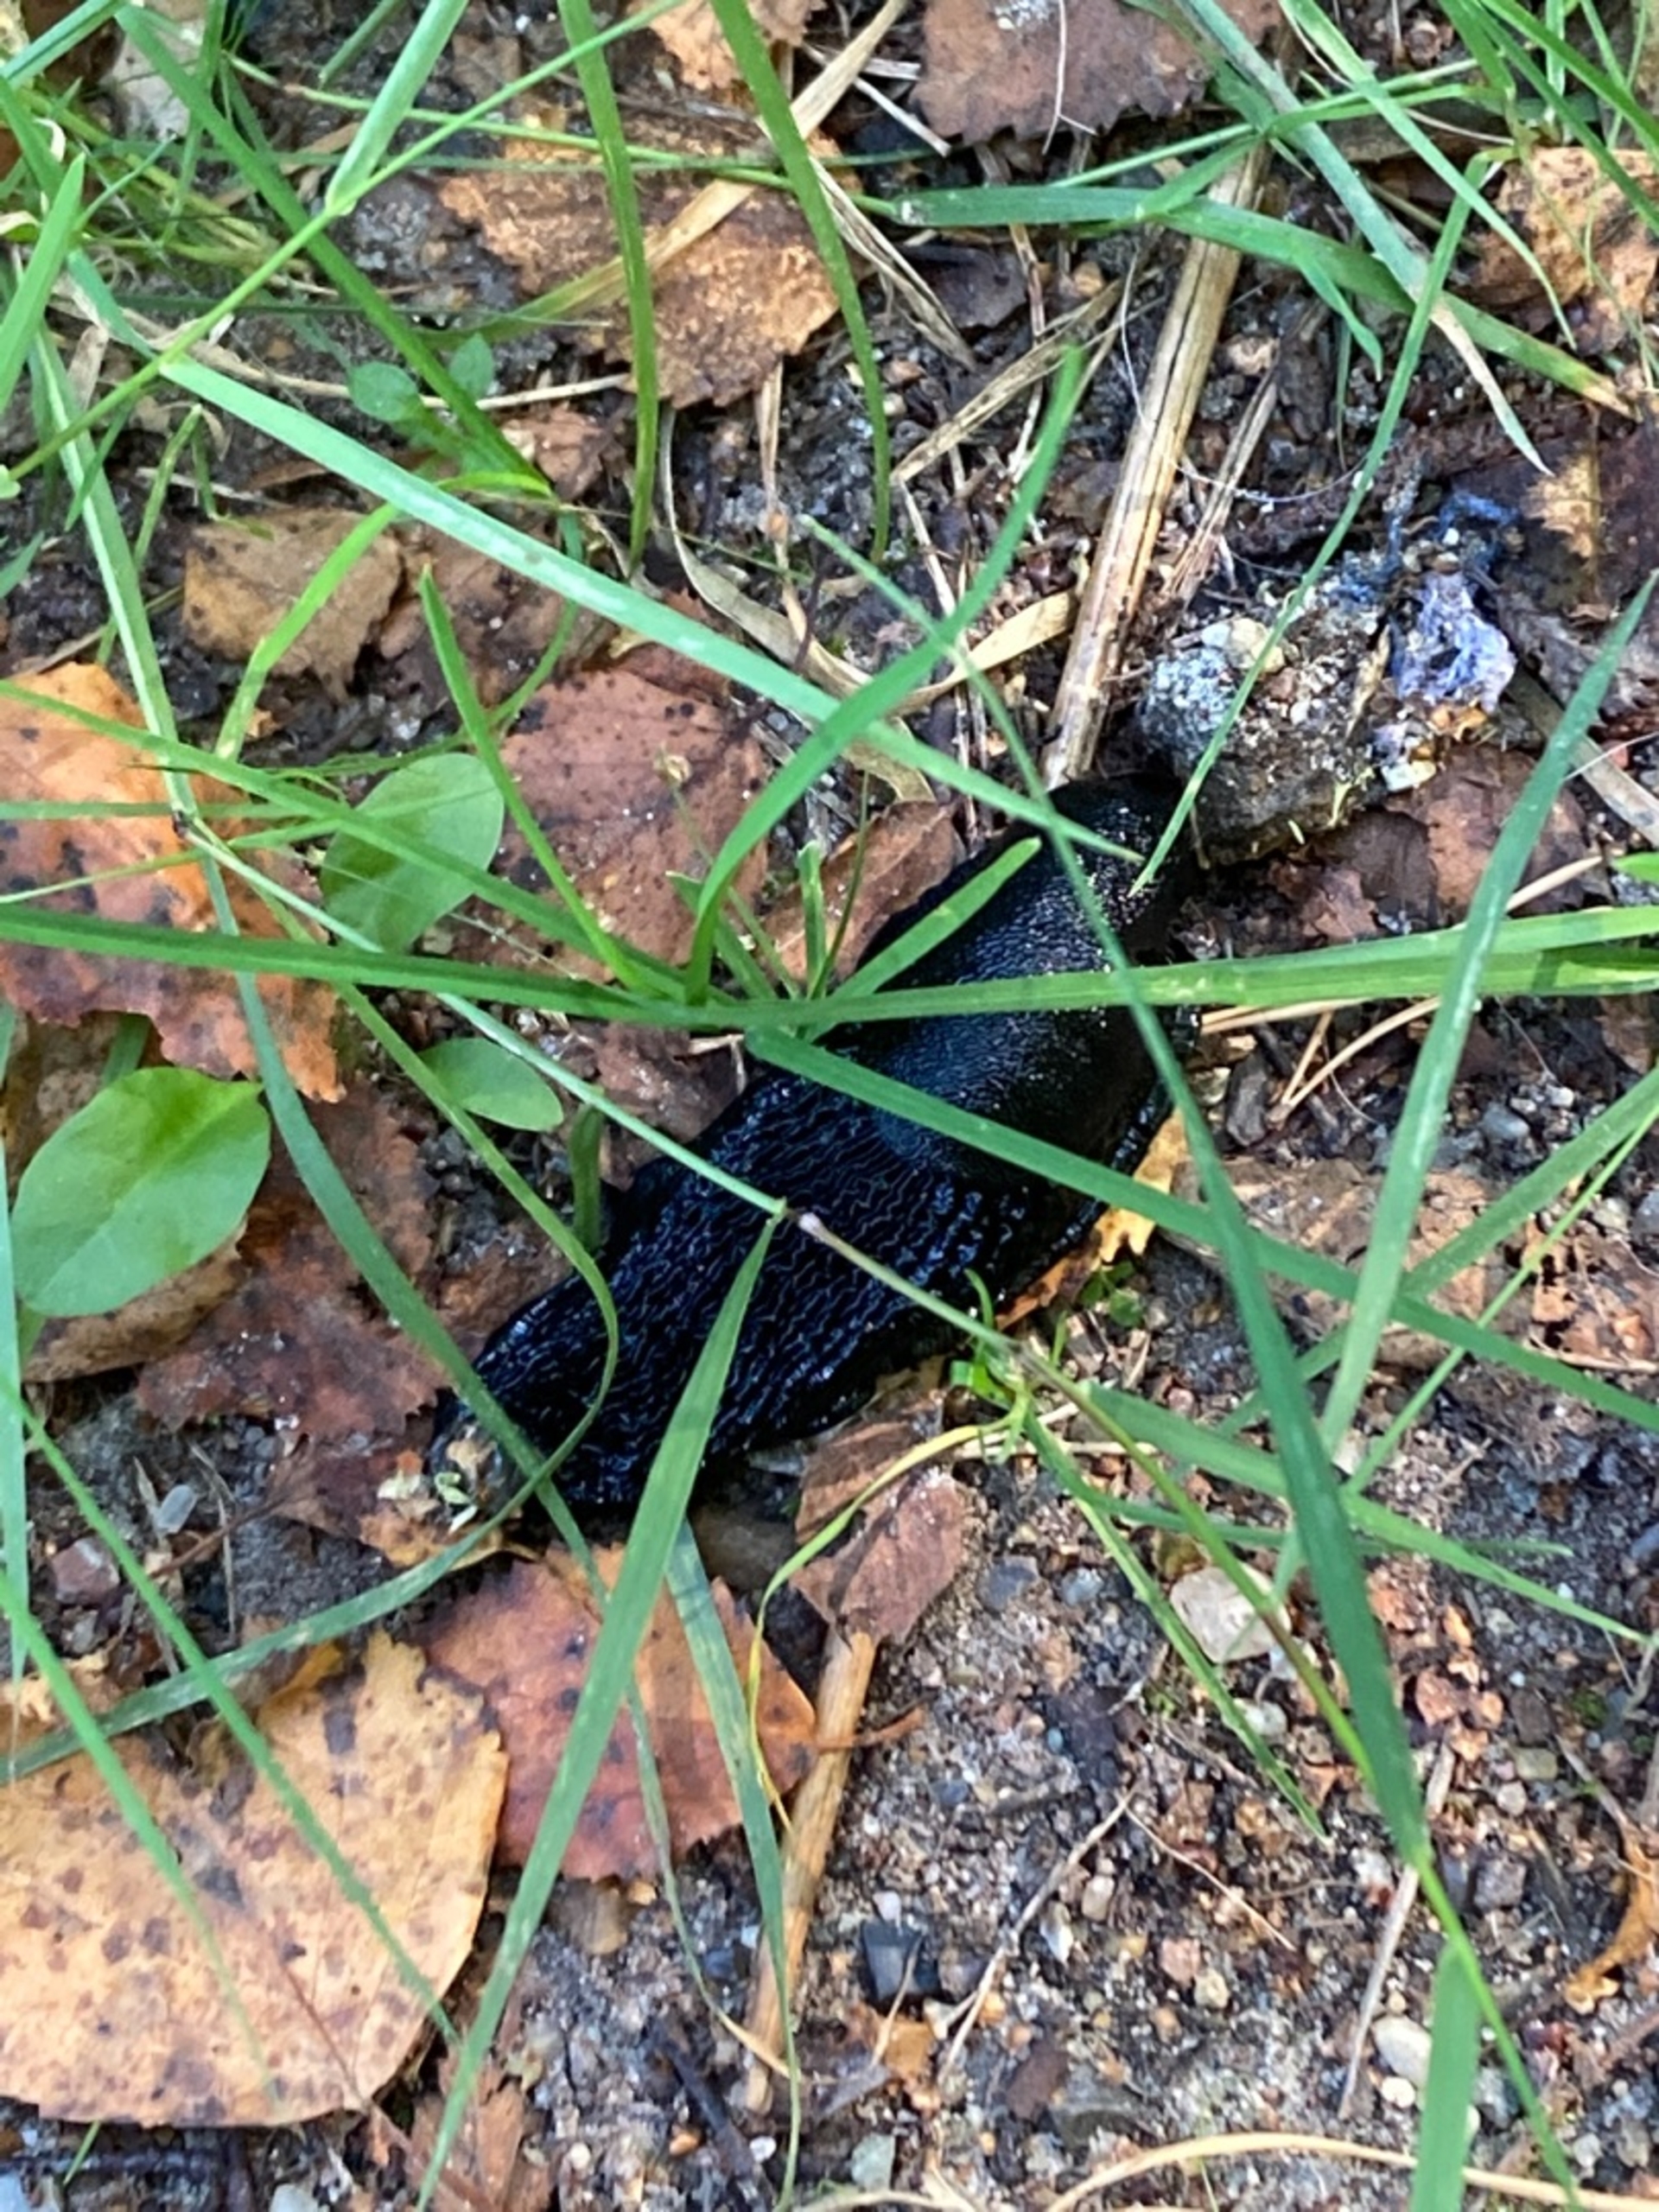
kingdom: Animalia
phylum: Mollusca
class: Gastropoda
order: Stylommatophora
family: Arionidae
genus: Arion
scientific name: Arion ater
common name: Sort skovsnegl
